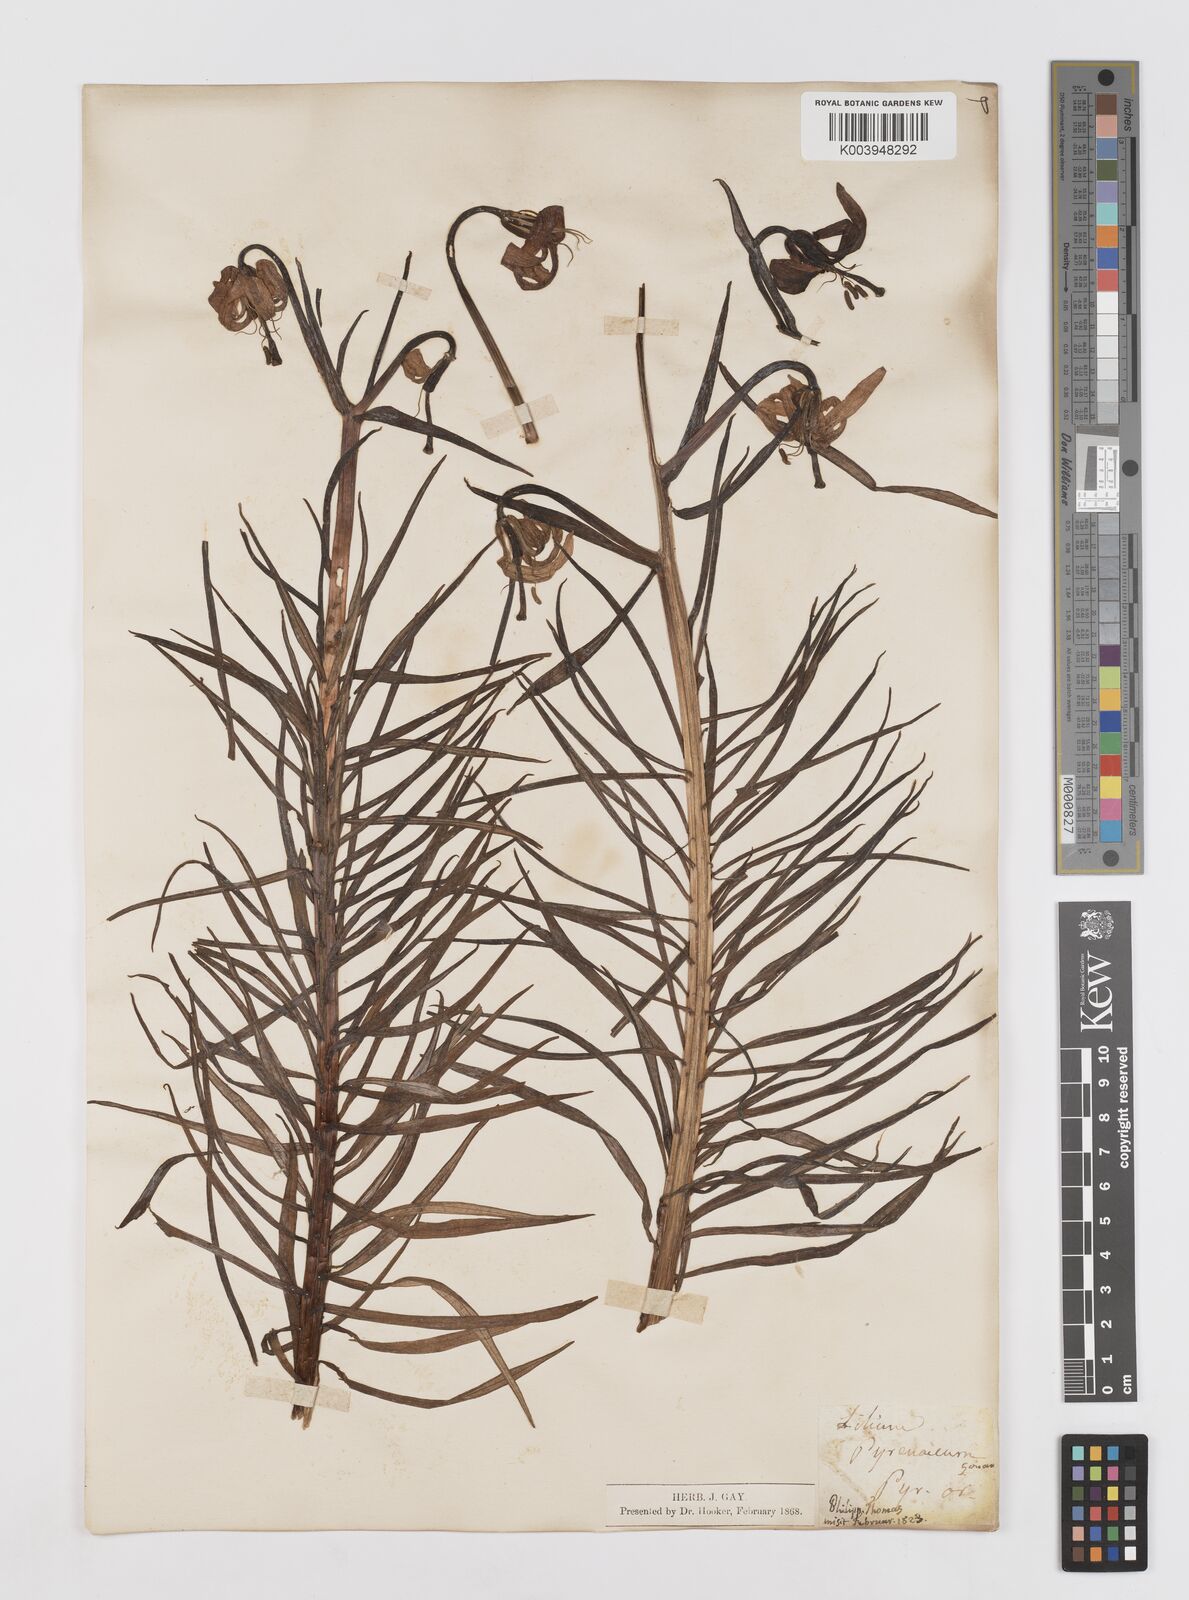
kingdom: Plantae
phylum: Tracheophyta
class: Liliopsida
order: Liliales
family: Liliaceae
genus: Lilium
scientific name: Lilium pyrenaicum
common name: Pyrenean lily
